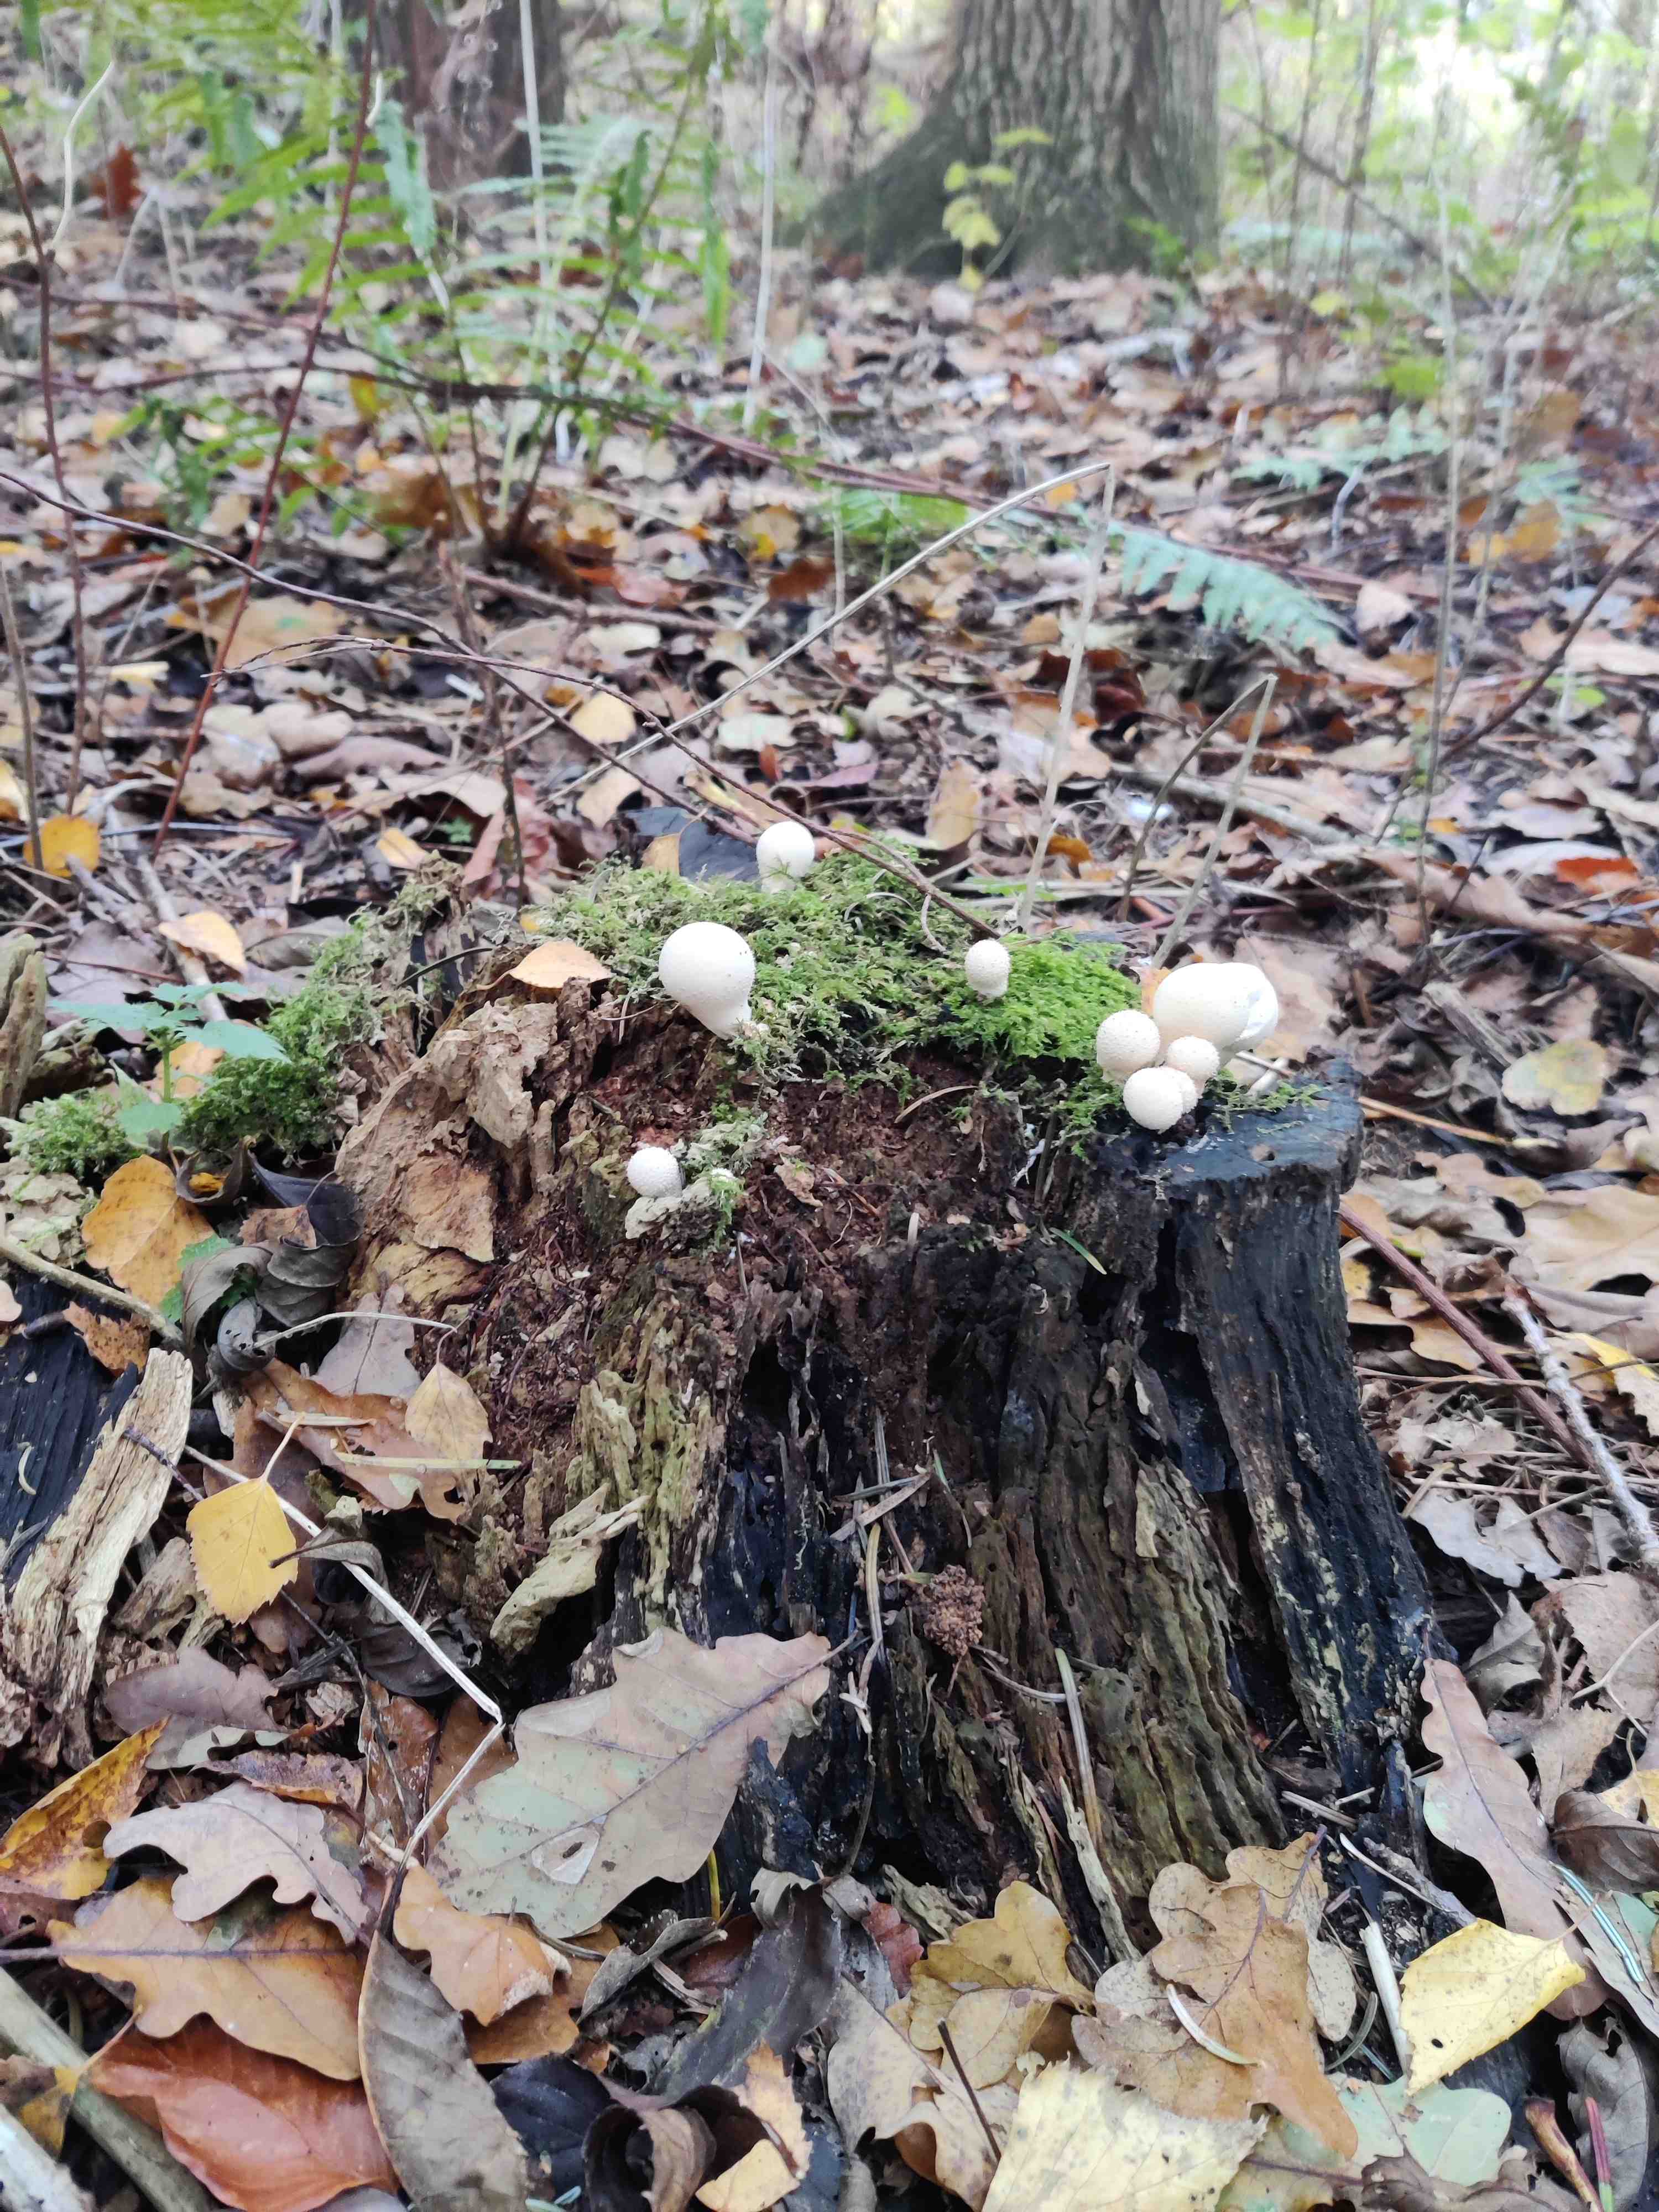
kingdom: Fungi
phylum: Basidiomycota
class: Agaricomycetes
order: Agaricales
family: Lycoperdaceae
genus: Apioperdon
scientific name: Apioperdon pyriforme
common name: pære-støvbold
